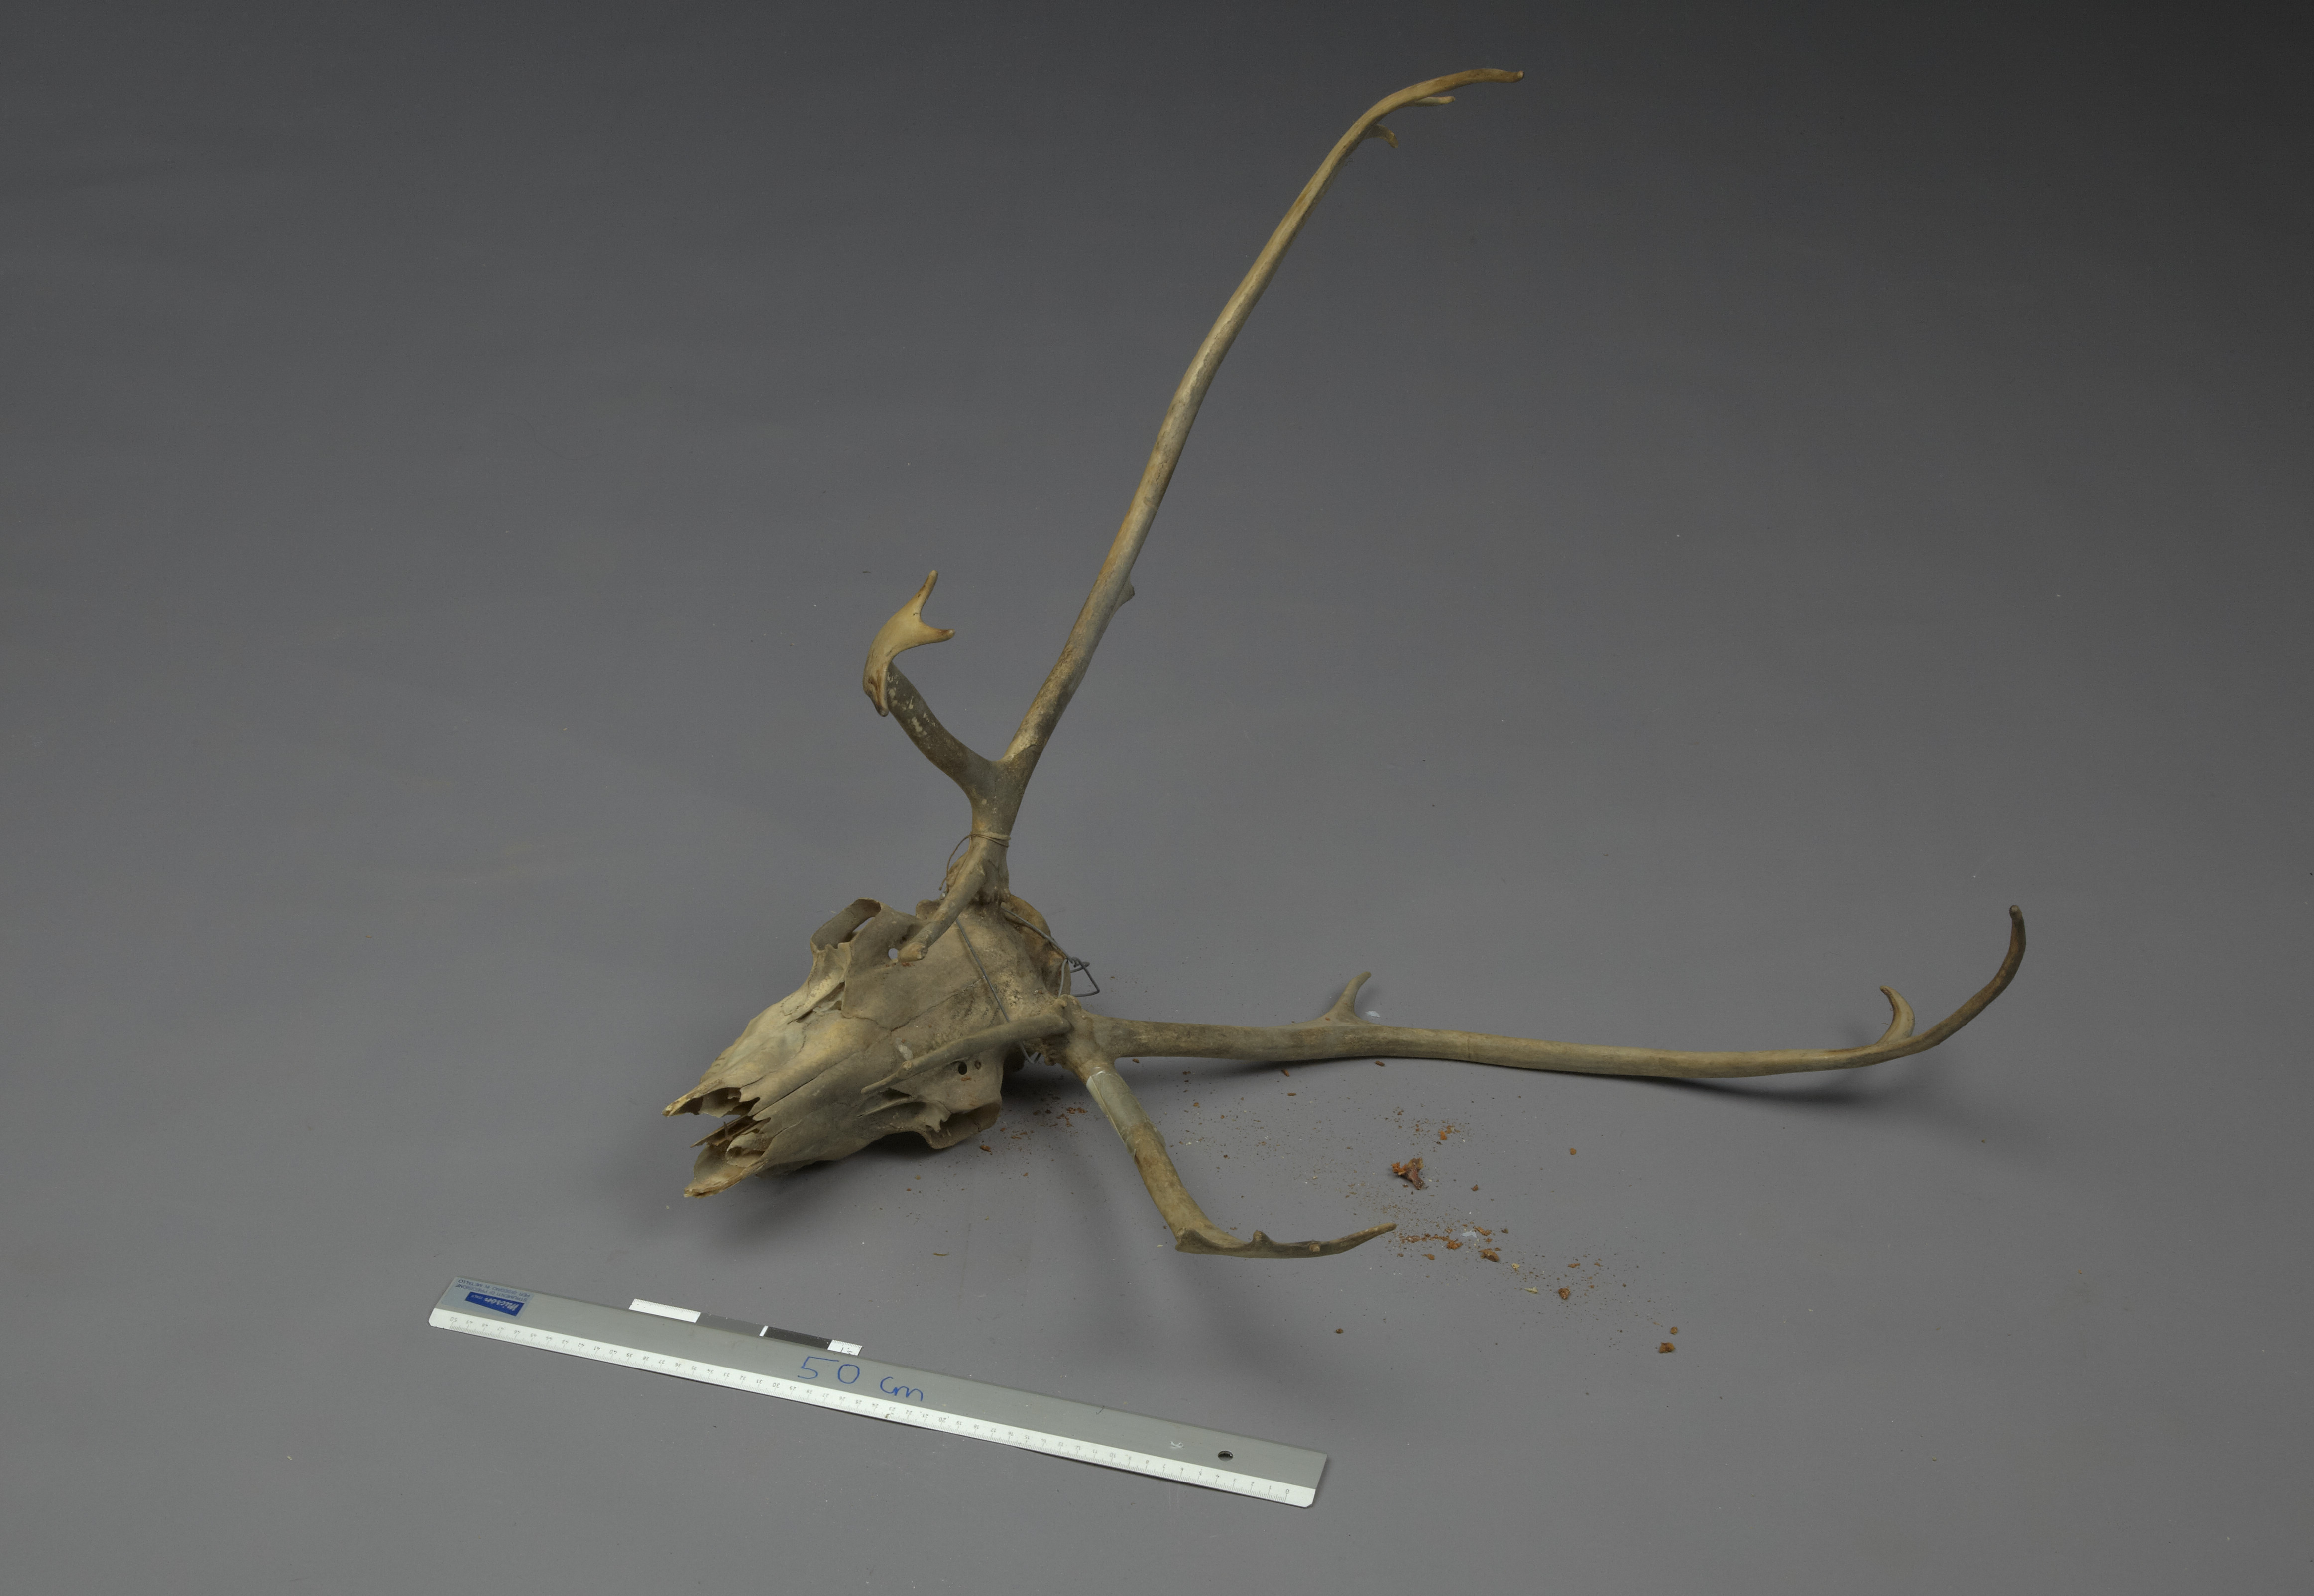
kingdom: Animalia
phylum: Chordata
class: Mammalia
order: Artiodactyla
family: Cervidae
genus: Rangifer
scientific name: Rangifer tarandus
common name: Reindeer
